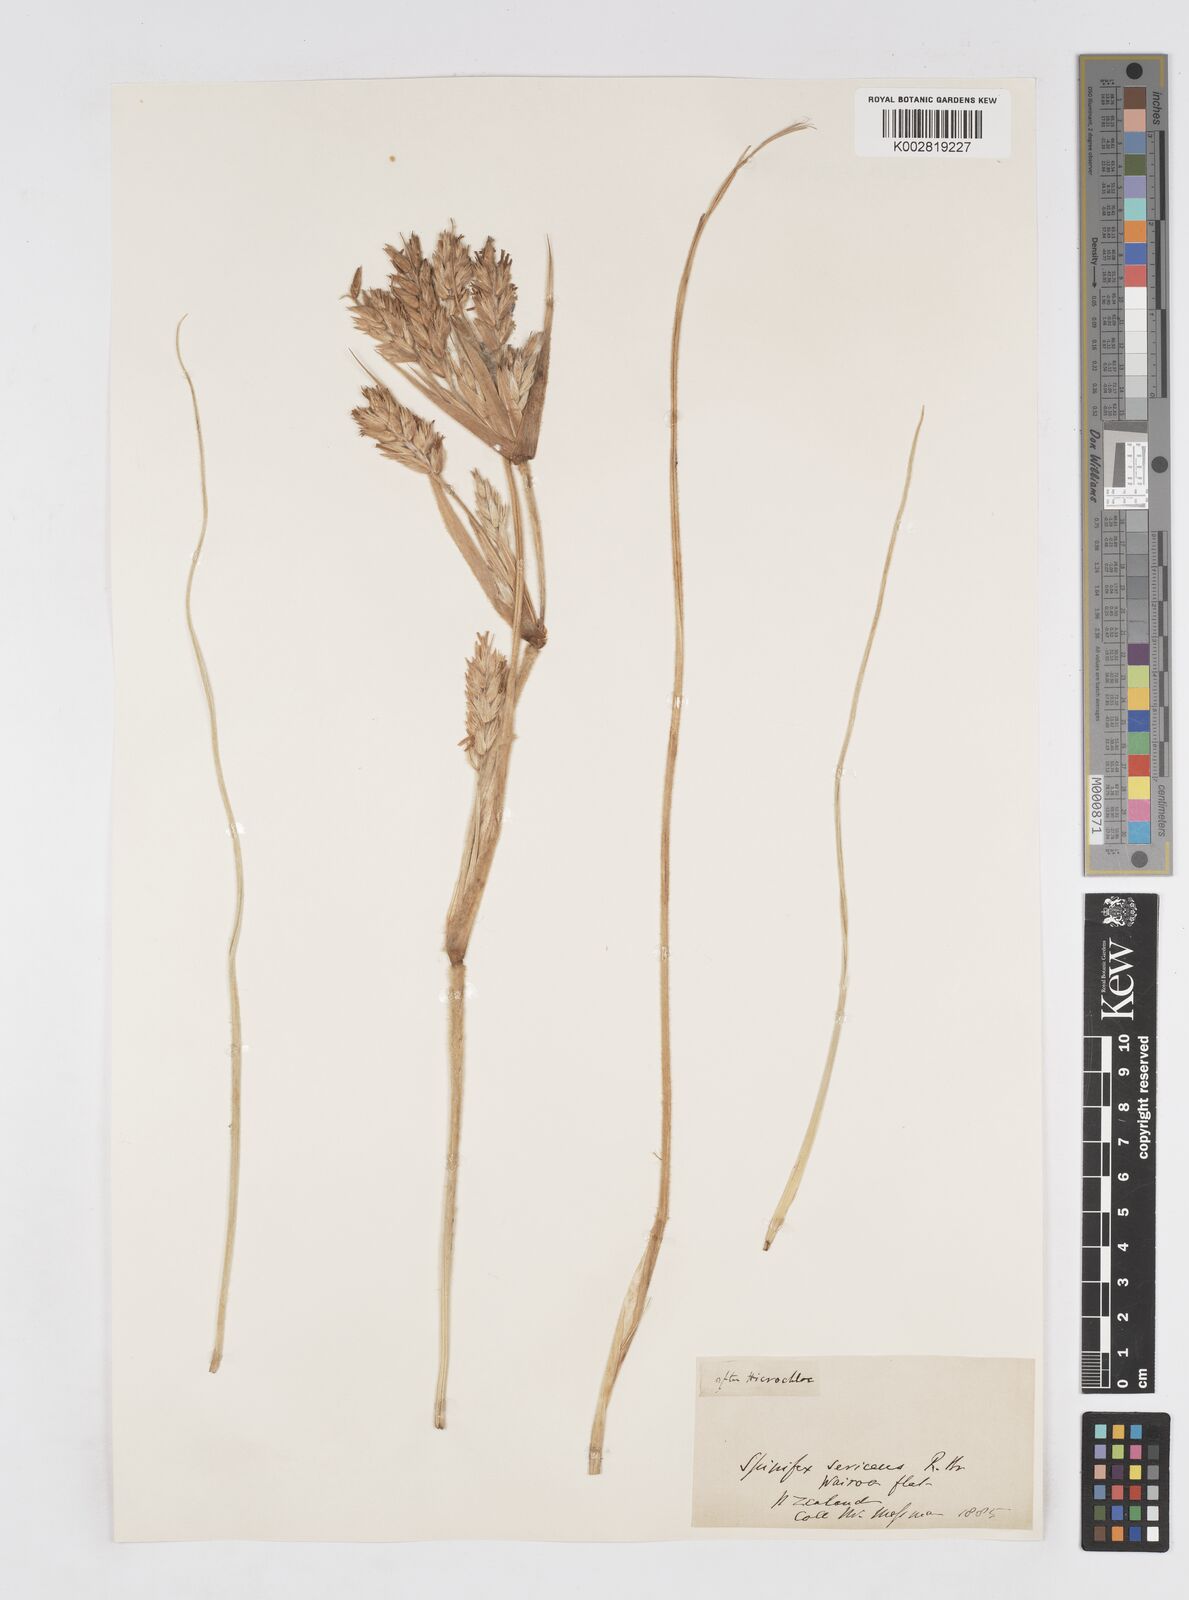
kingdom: Plantae
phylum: Tracheophyta
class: Liliopsida
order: Poales
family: Poaceae
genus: Spinifex
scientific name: Spinifex sericeus
